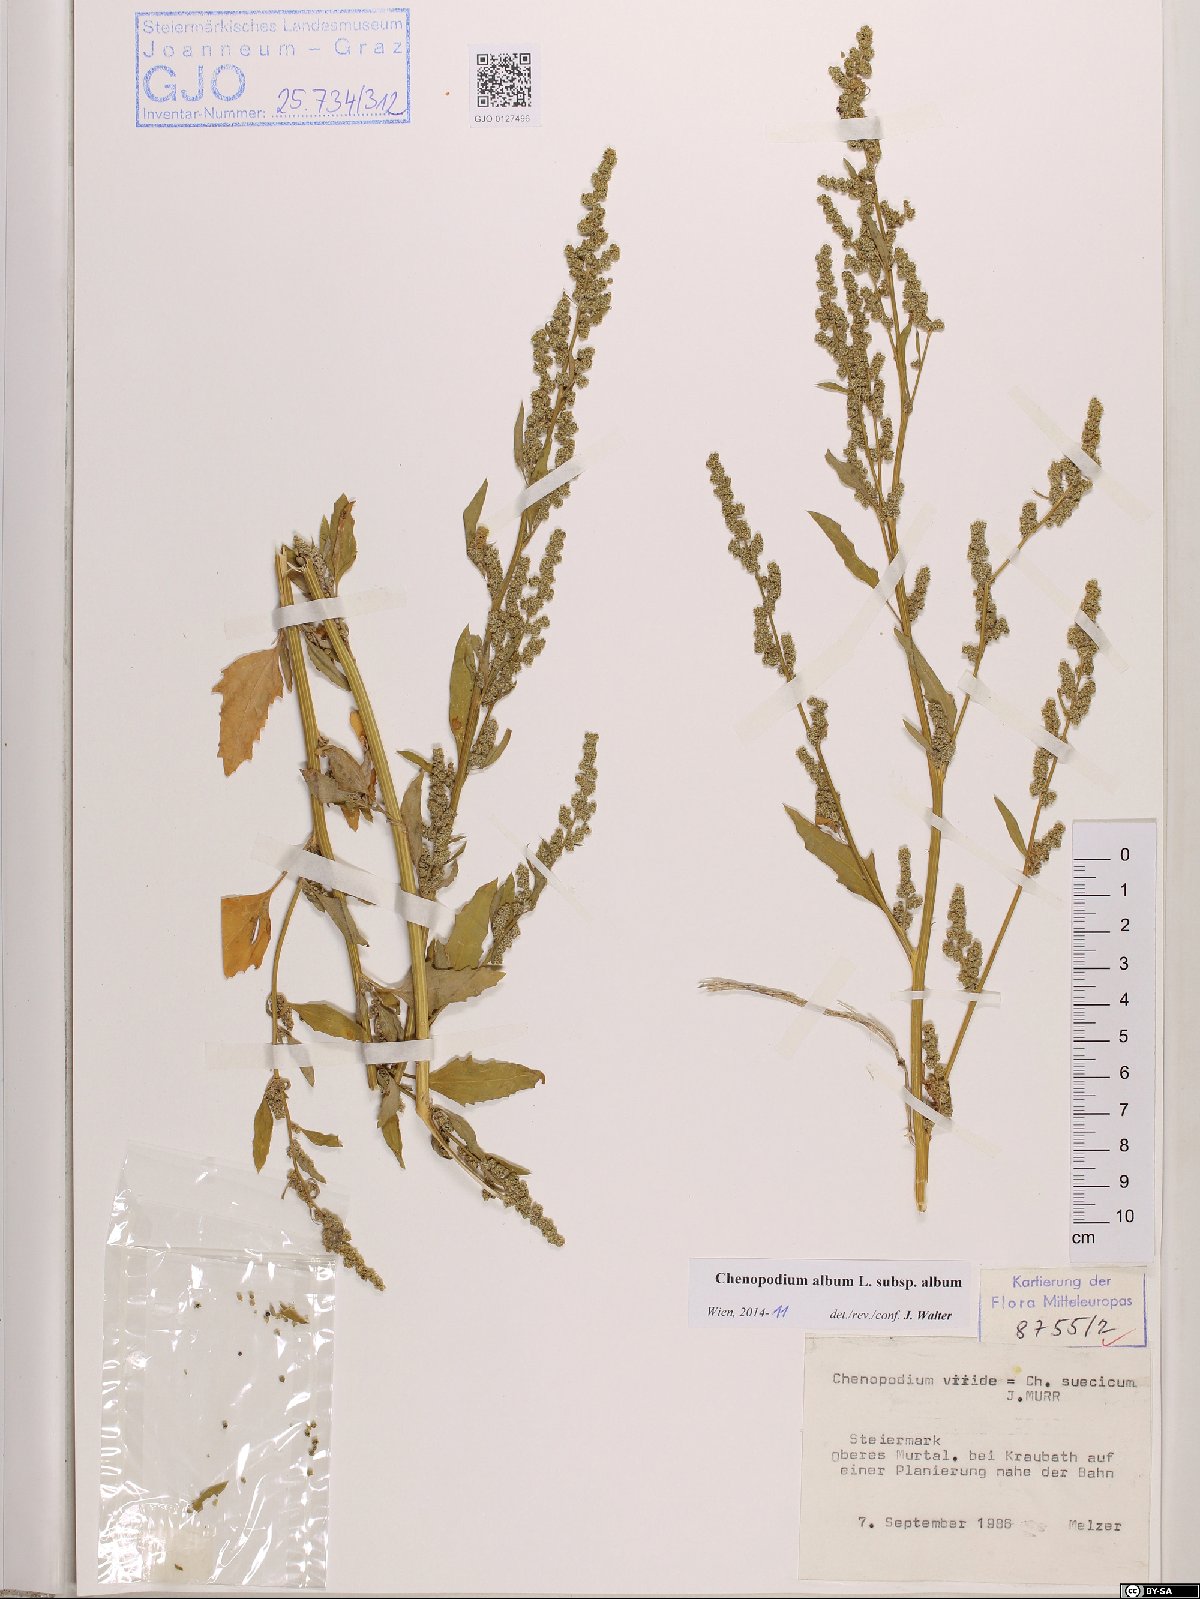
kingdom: Plantae
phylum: Tracheophyta
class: Magnoliopsida
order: Caryophyllales
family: Amaranthaceae
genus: Chenopodium
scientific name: Chenopodium album
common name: Fat-hen
